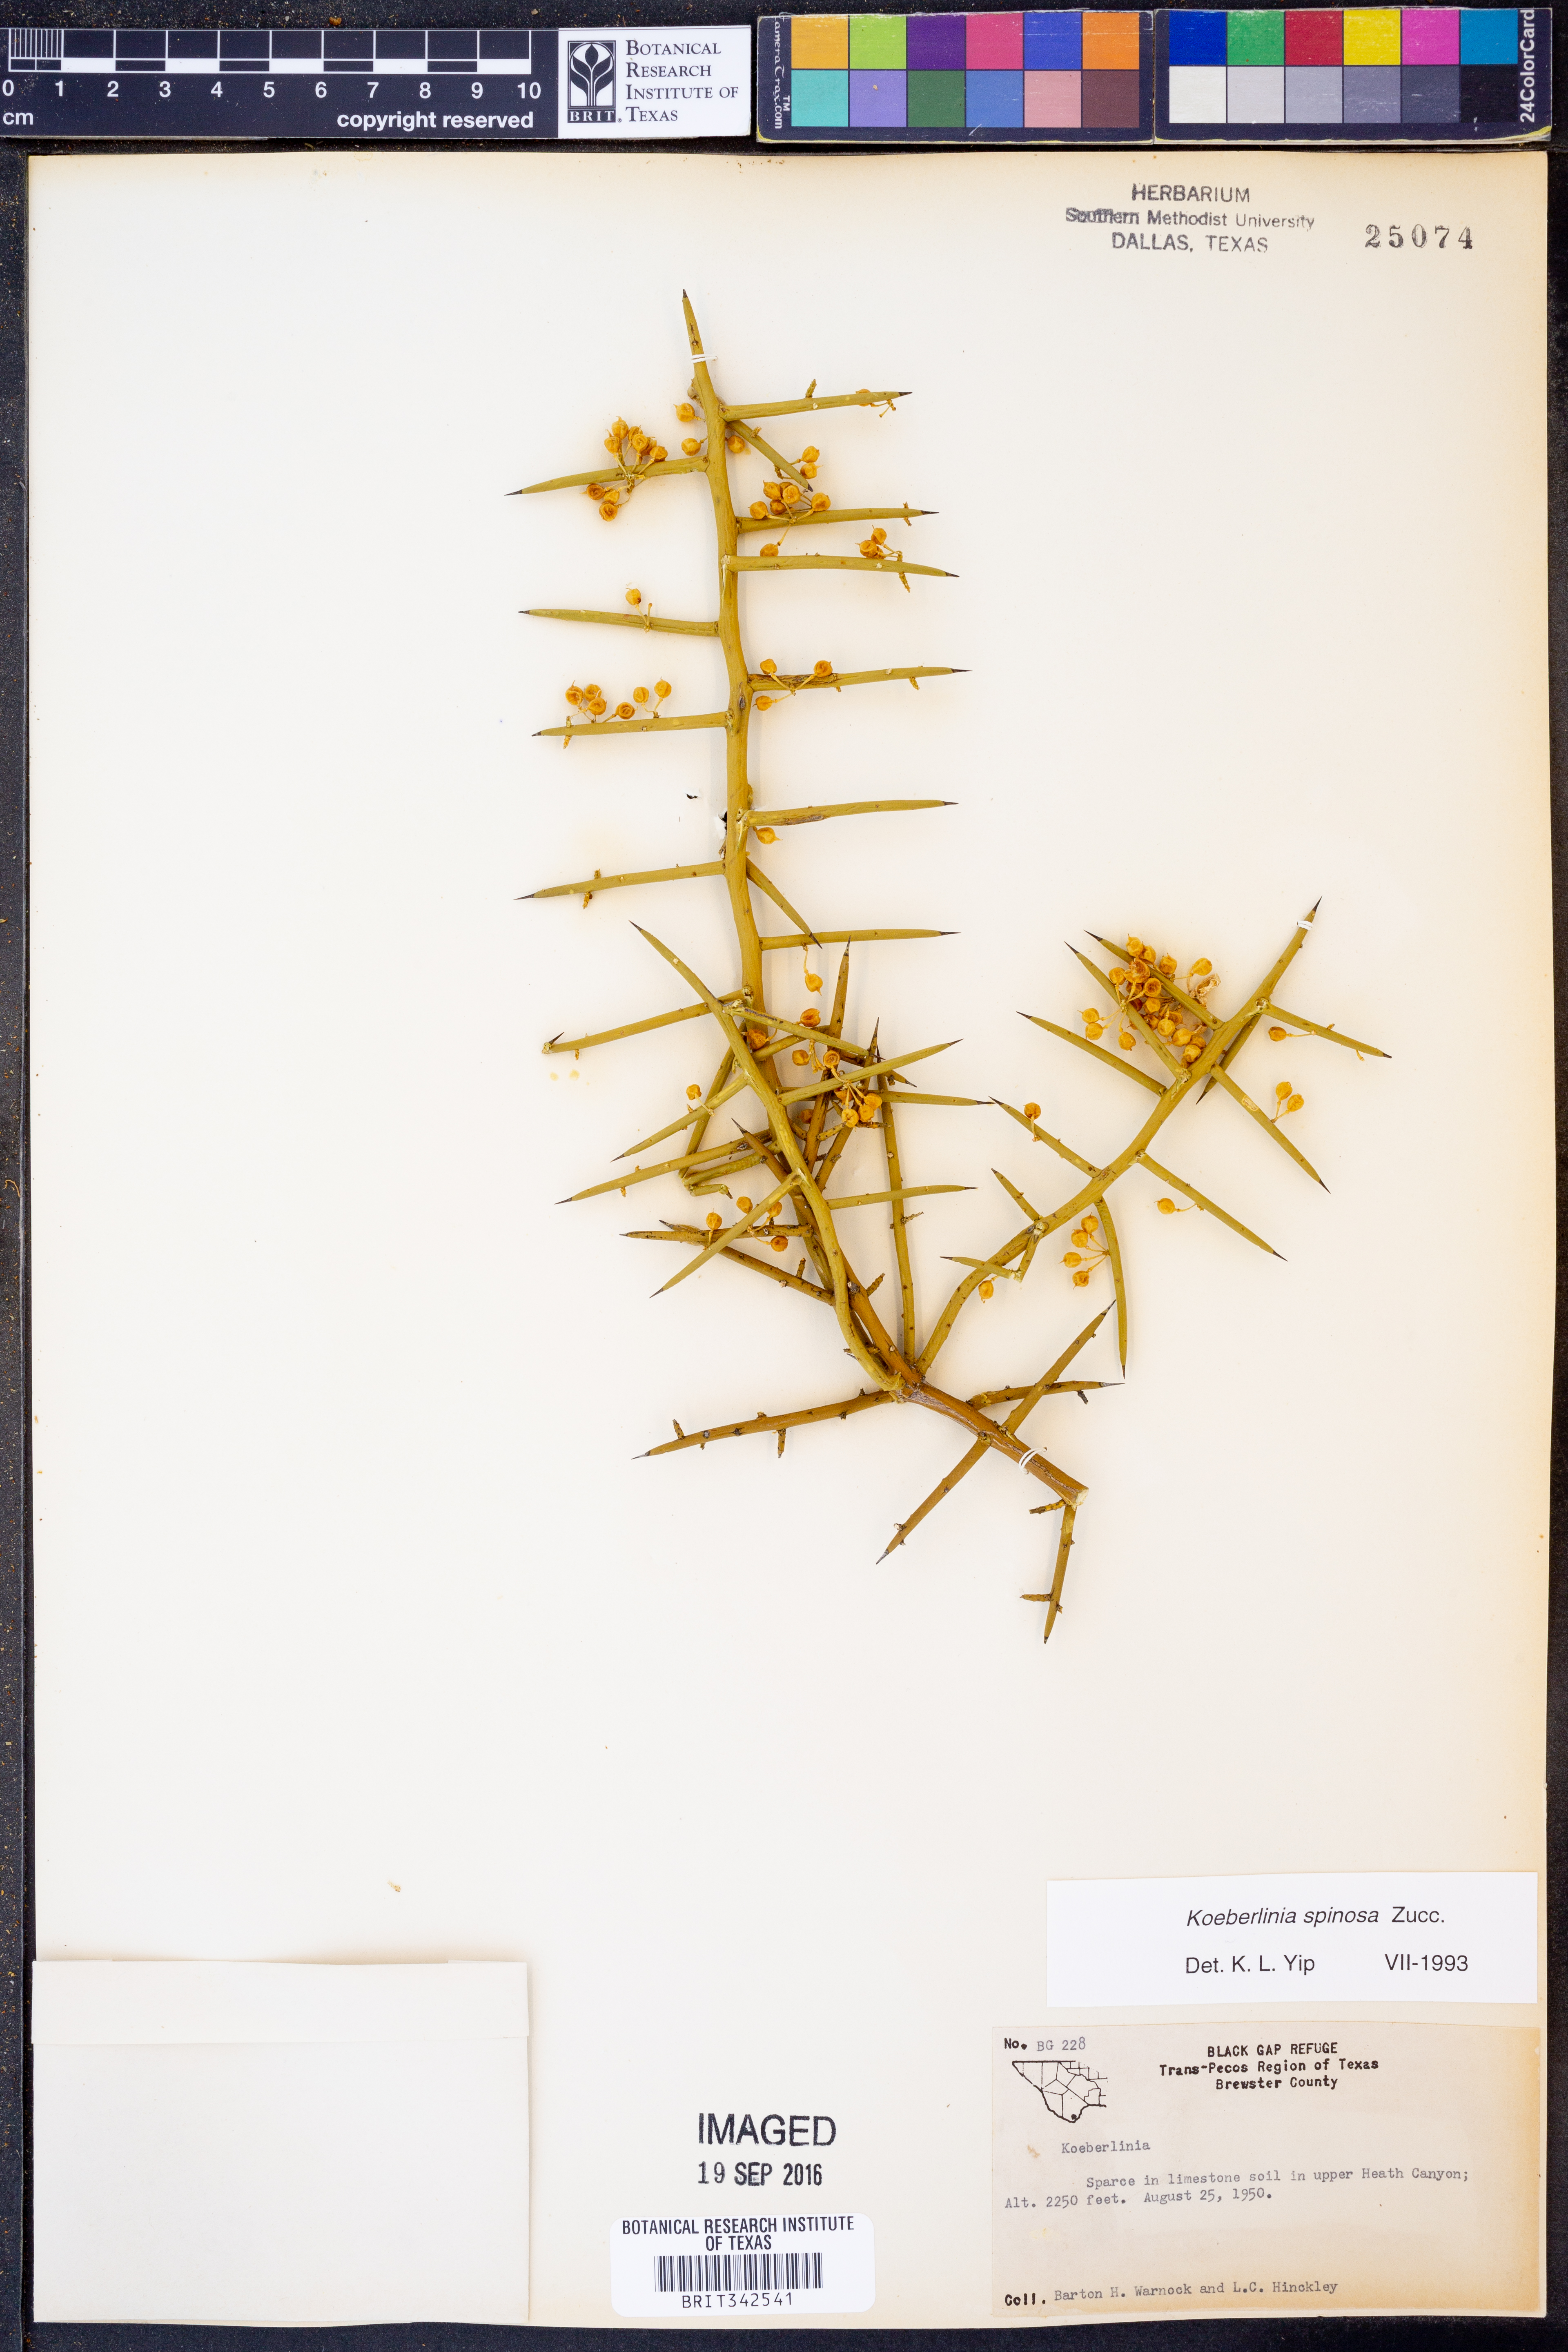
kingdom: Plantae
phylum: Tracheophyta
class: Magnoliopsida
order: Brassicales
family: Koeberliniaceae
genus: Koeberlinia
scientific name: Koeberlinia spinosa
